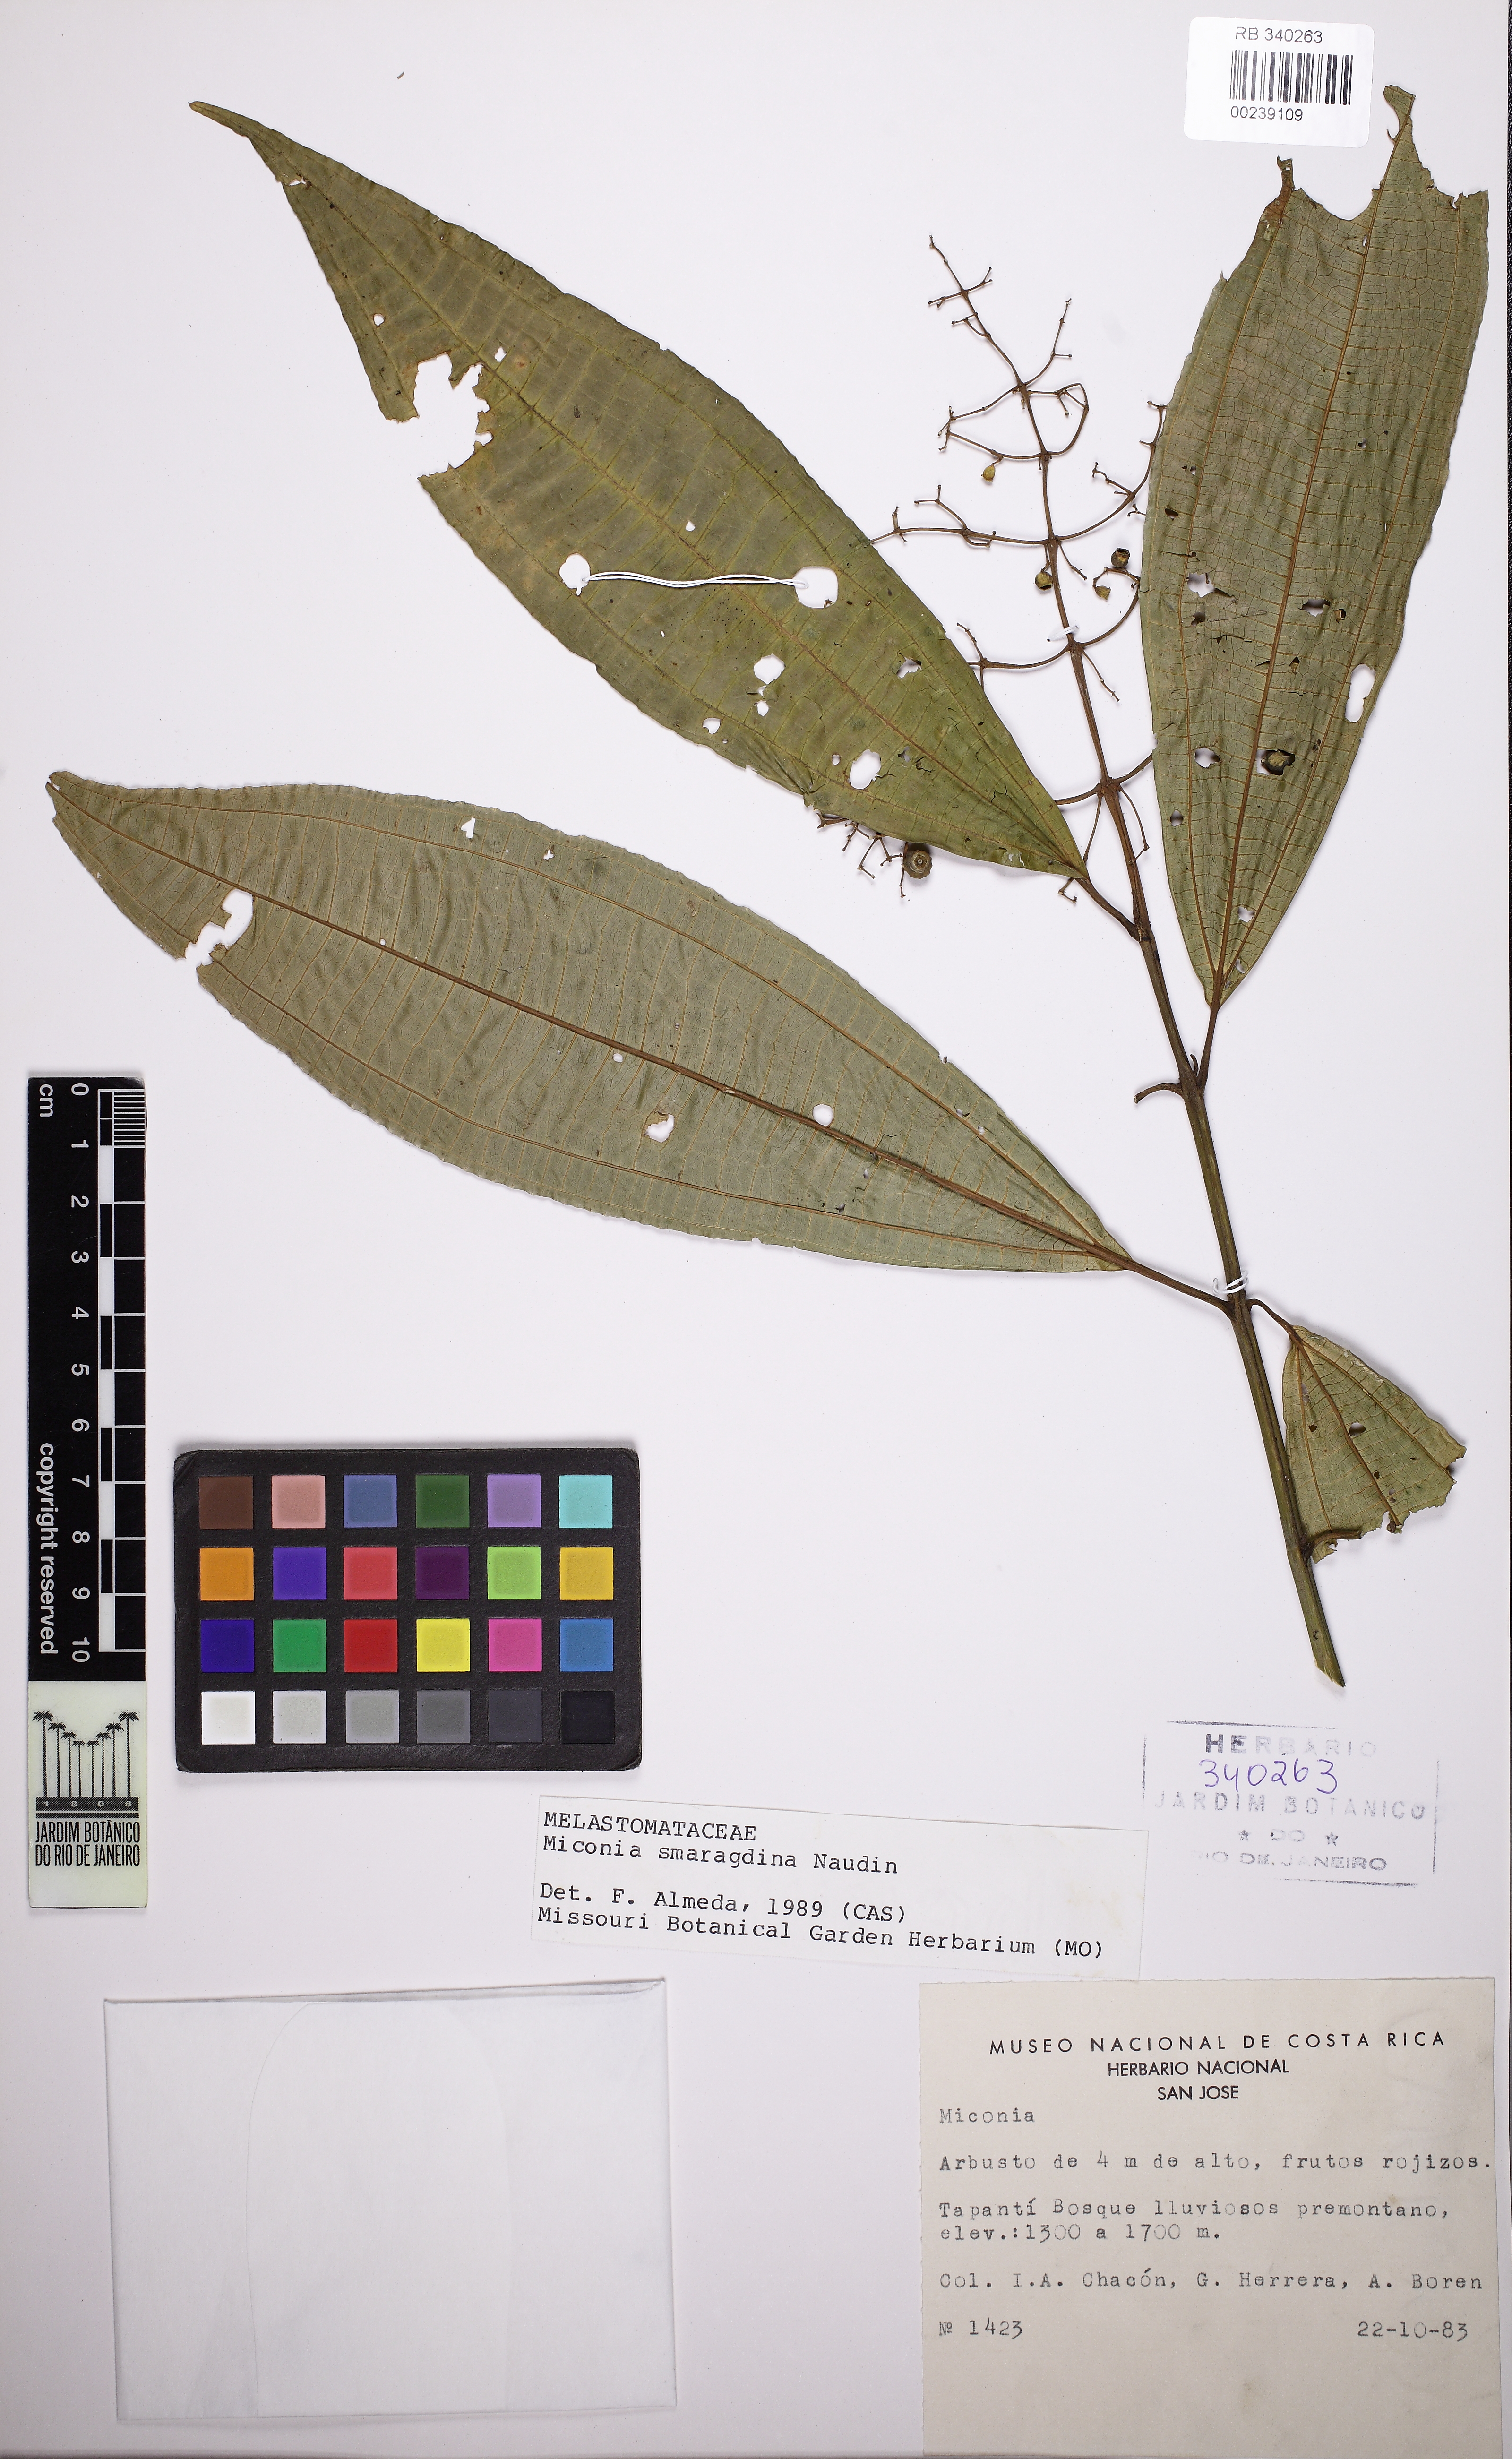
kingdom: Plantae
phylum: Tracheophyta
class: Magnoliopsida
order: Myrtales
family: Melastomataceae
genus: Miconia
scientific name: Miconia smaragdina
